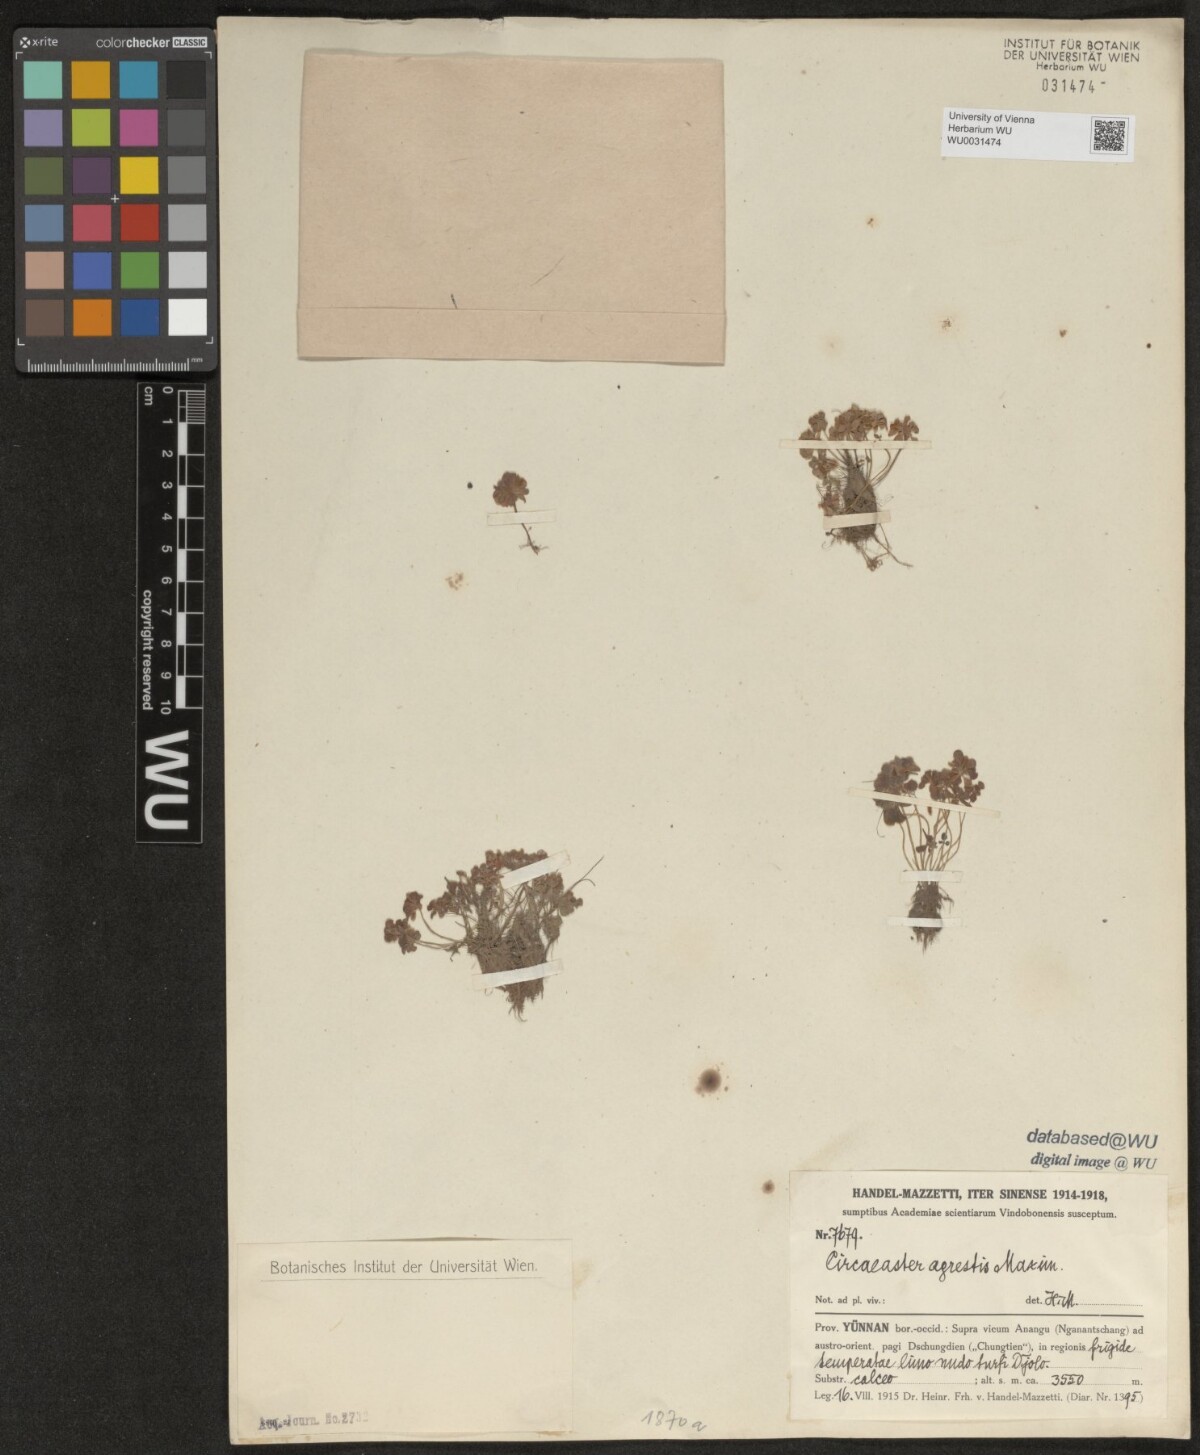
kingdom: Plantae
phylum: Tracheophyta
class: Magnoliopsida
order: Ranunculales
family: Circaeasteraceae
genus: Circaeaster
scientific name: Circaeaster agrestis
